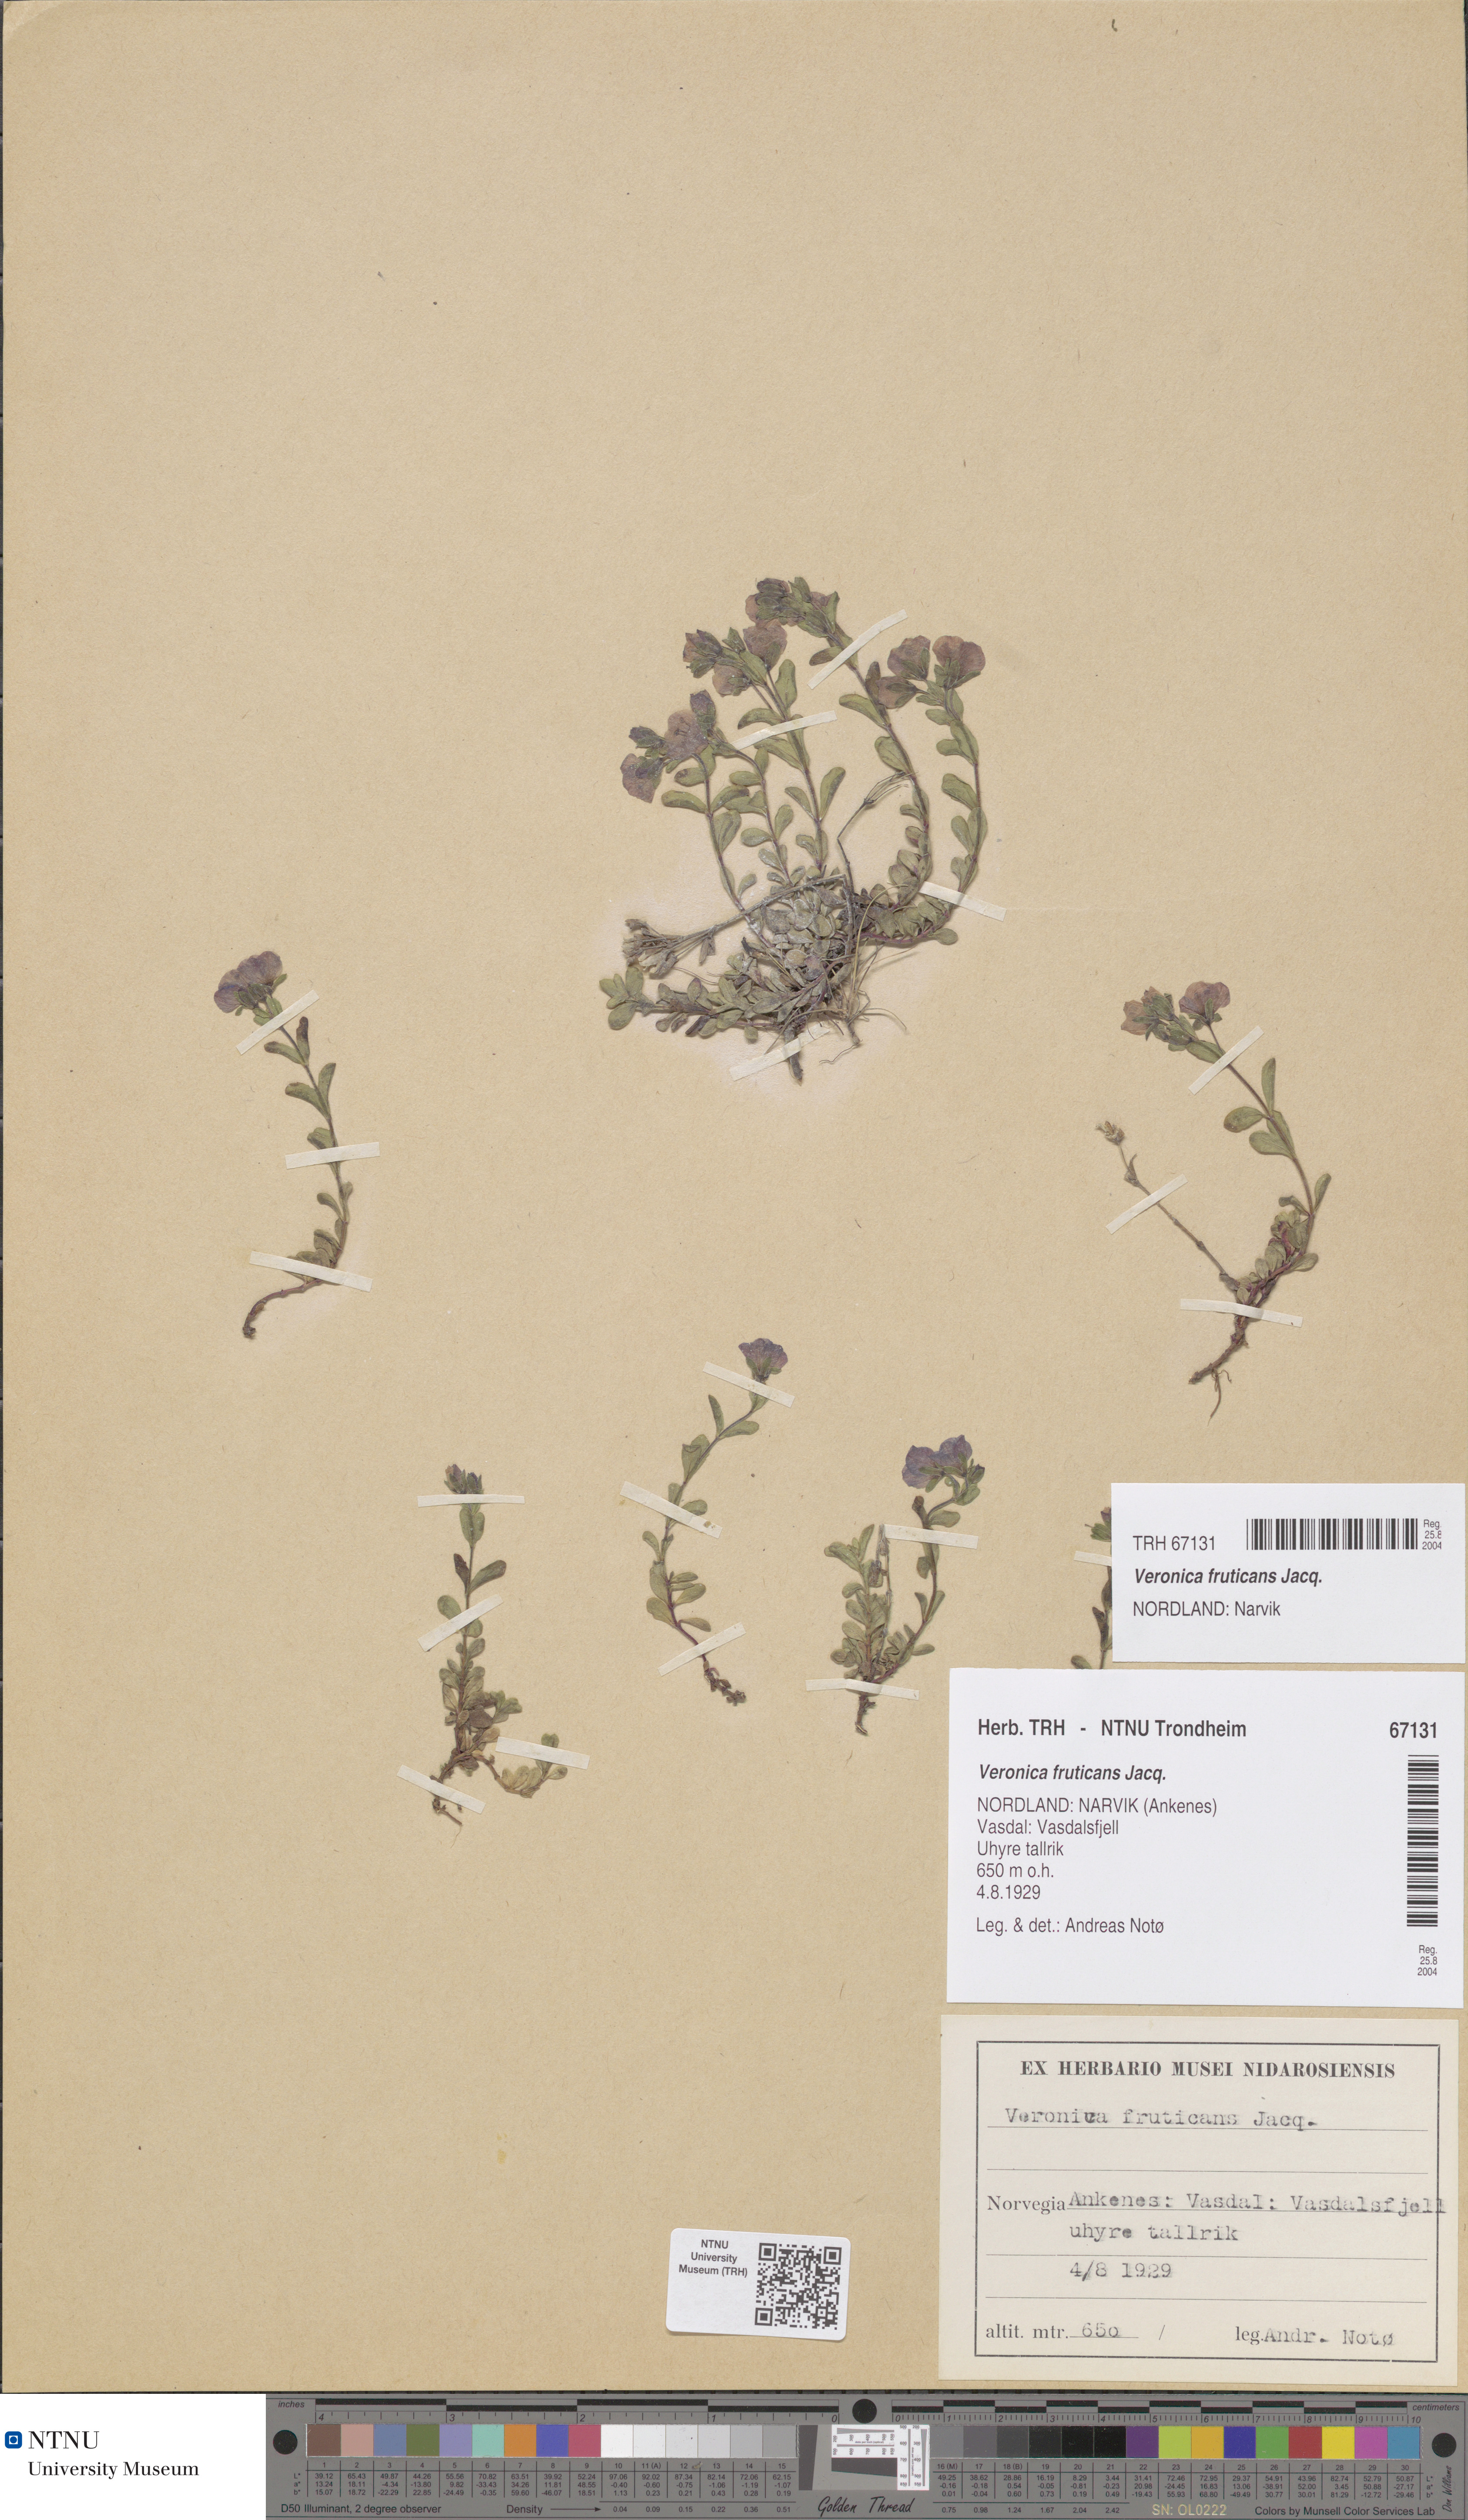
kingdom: Plantae
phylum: Tracheophyta
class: Magnoliopsida
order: Lamiales
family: Plantaginaceae
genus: Veronica
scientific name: Veronica fruticans
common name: Rock speedwell
